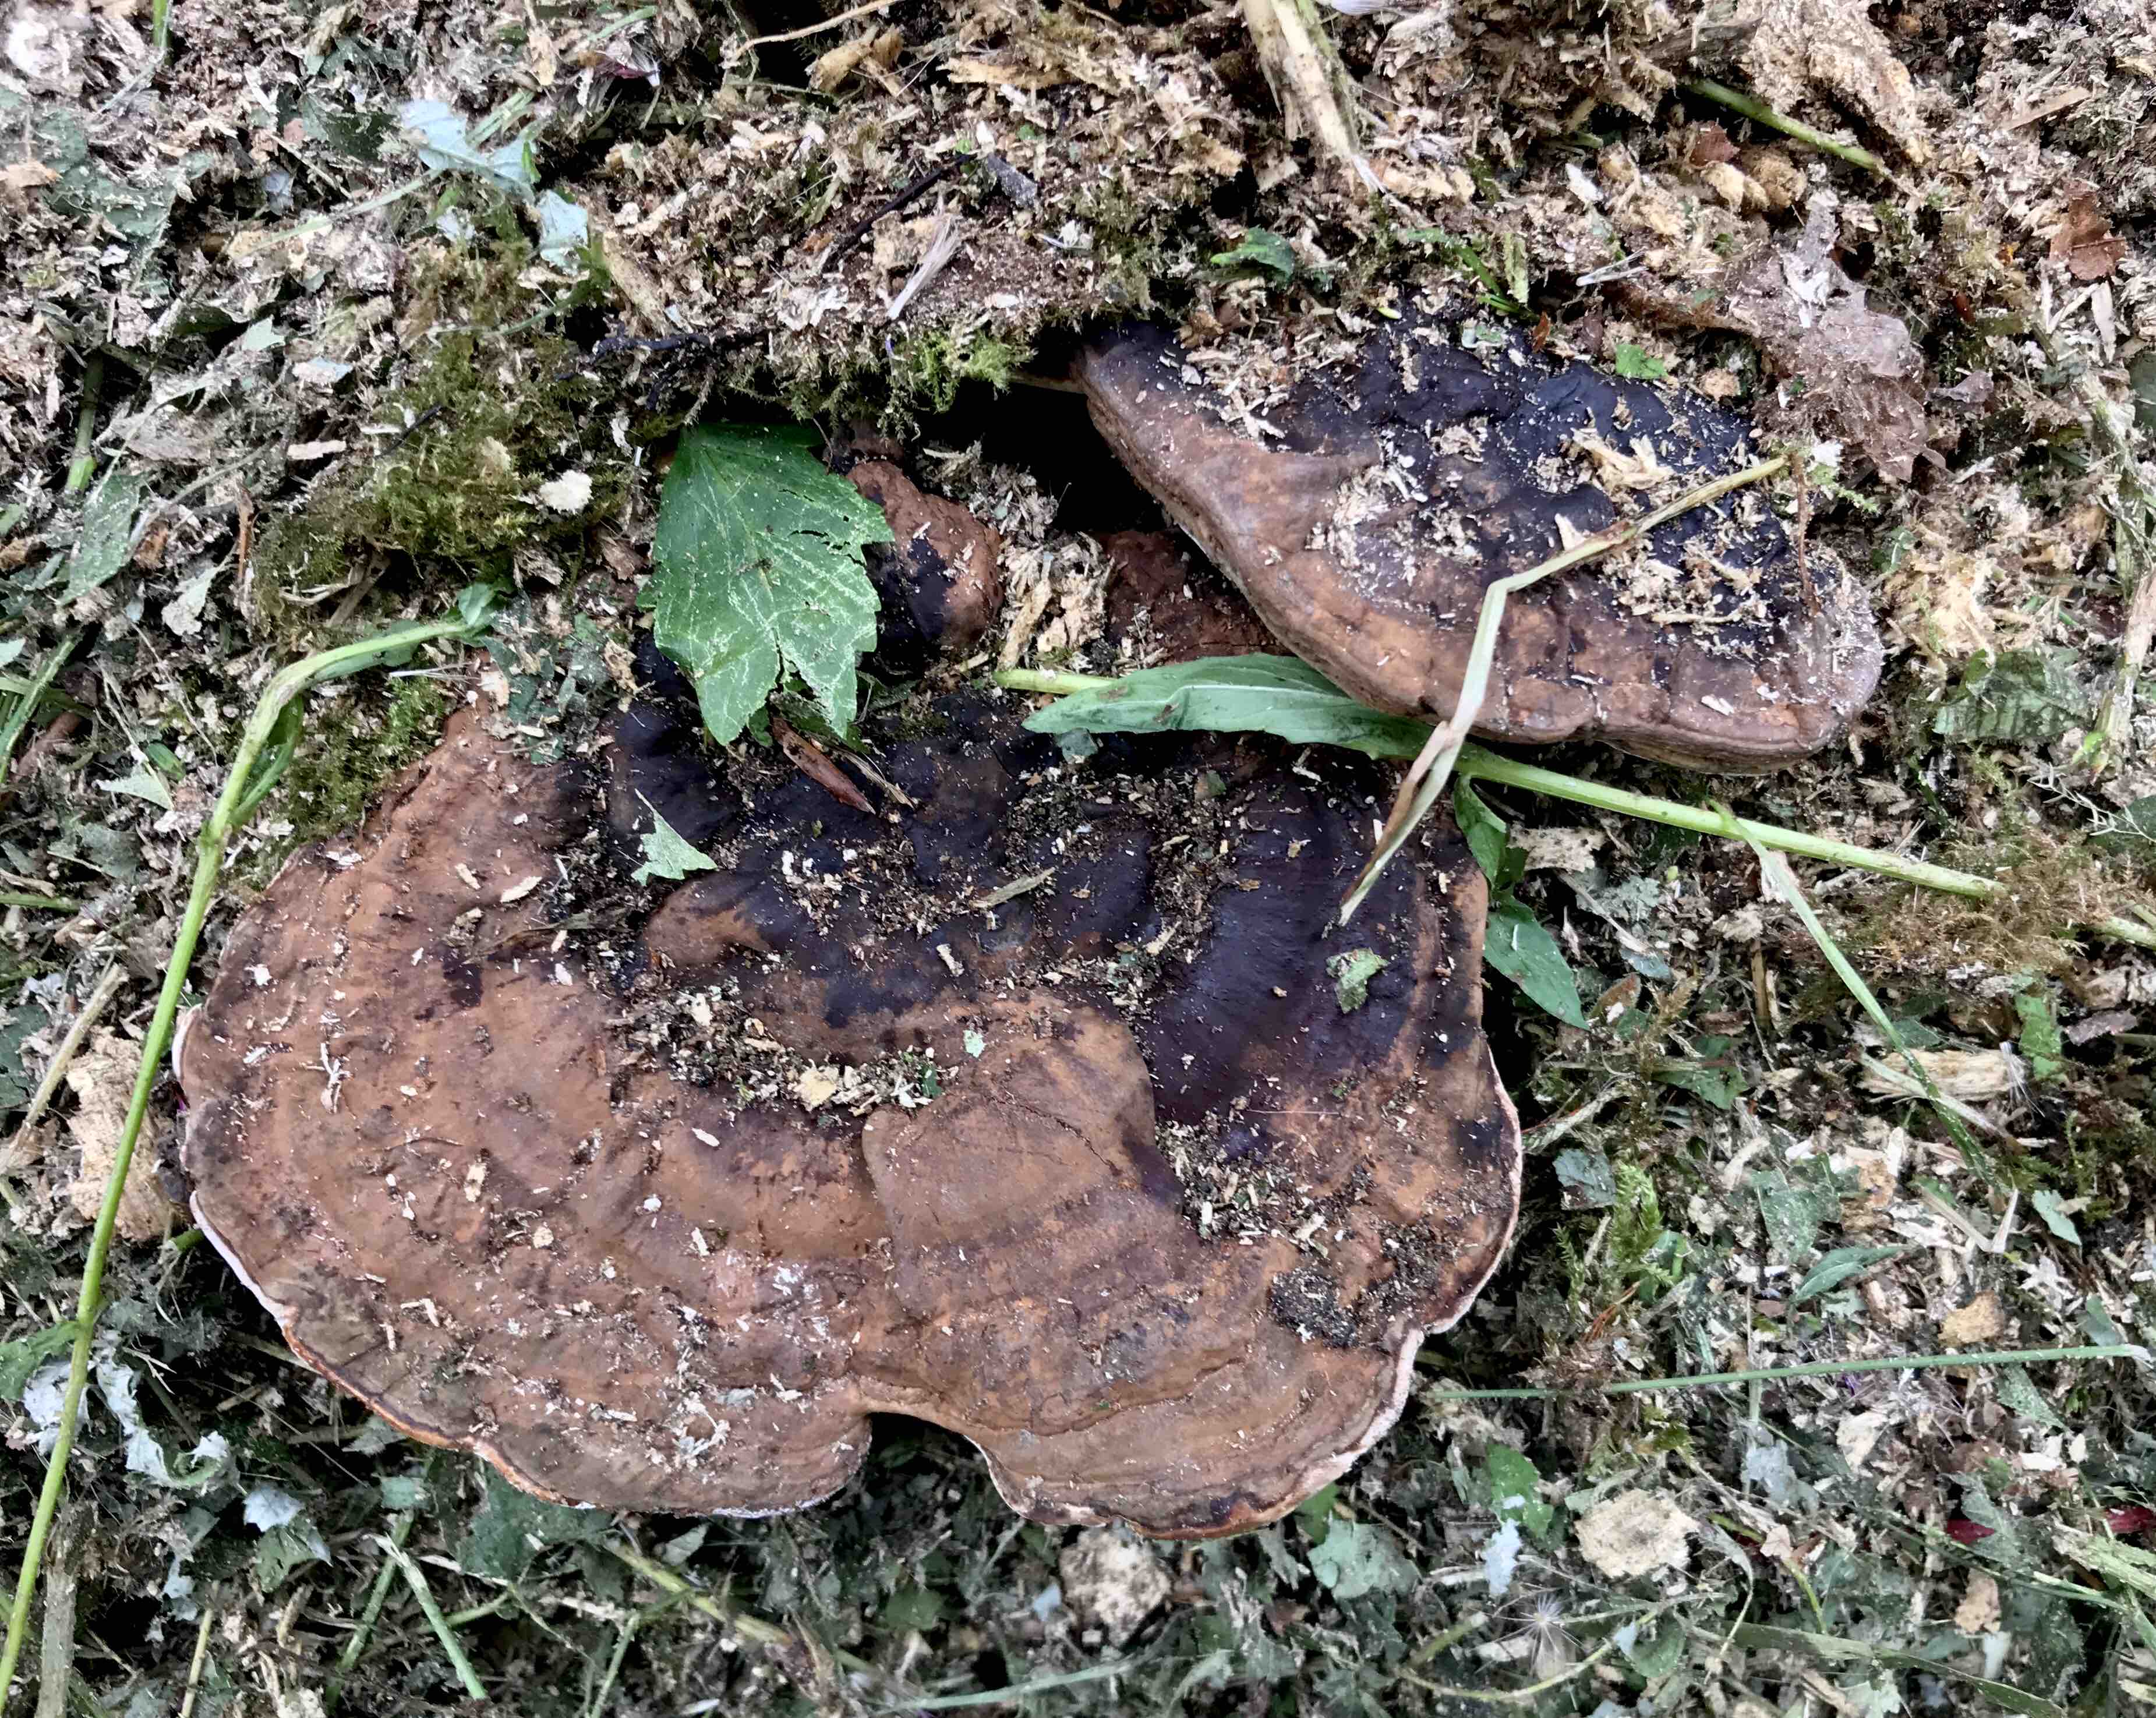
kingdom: Fungi
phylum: Basidiomycota
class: Agaricomycetes
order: Polyporales
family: Polyporaceae
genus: Ganoderma
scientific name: Ganoderma applanatum
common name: flad lakporesvamp
